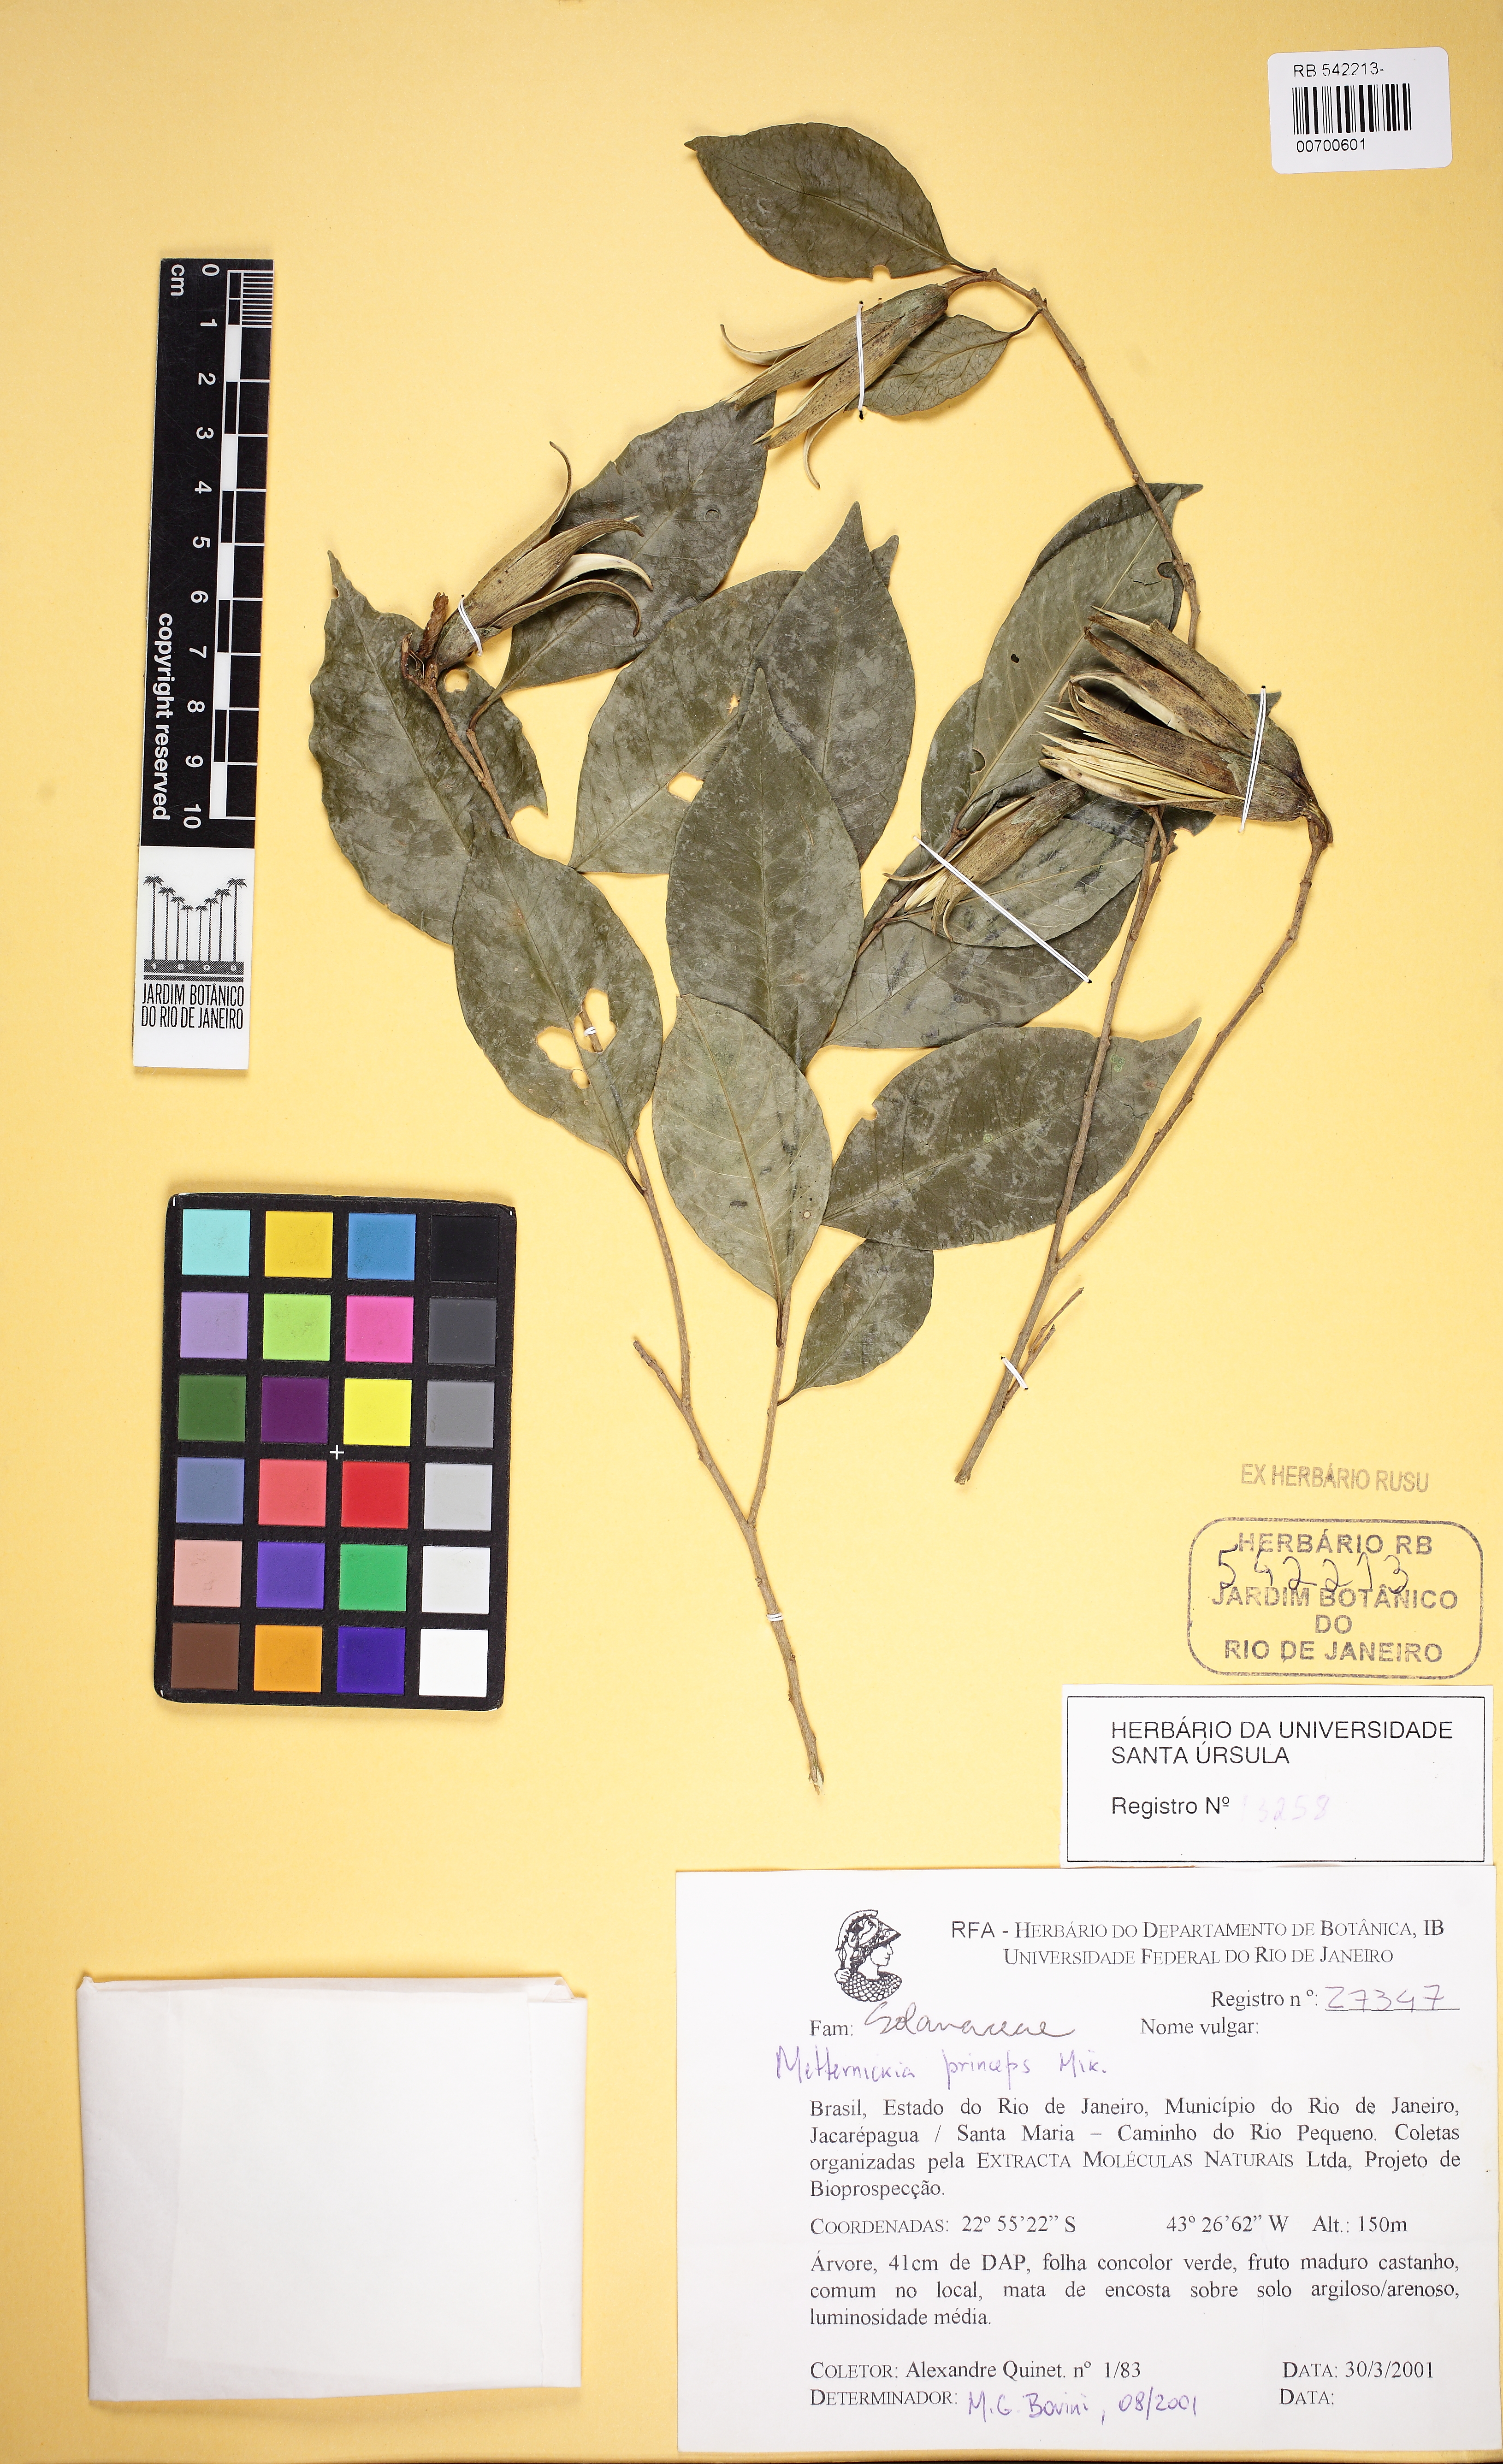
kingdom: Plantae
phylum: Tracheophyta
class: Magnoliopsida
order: Solanales
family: Solanaceae
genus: Metternichia
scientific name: Metternichia princeps
